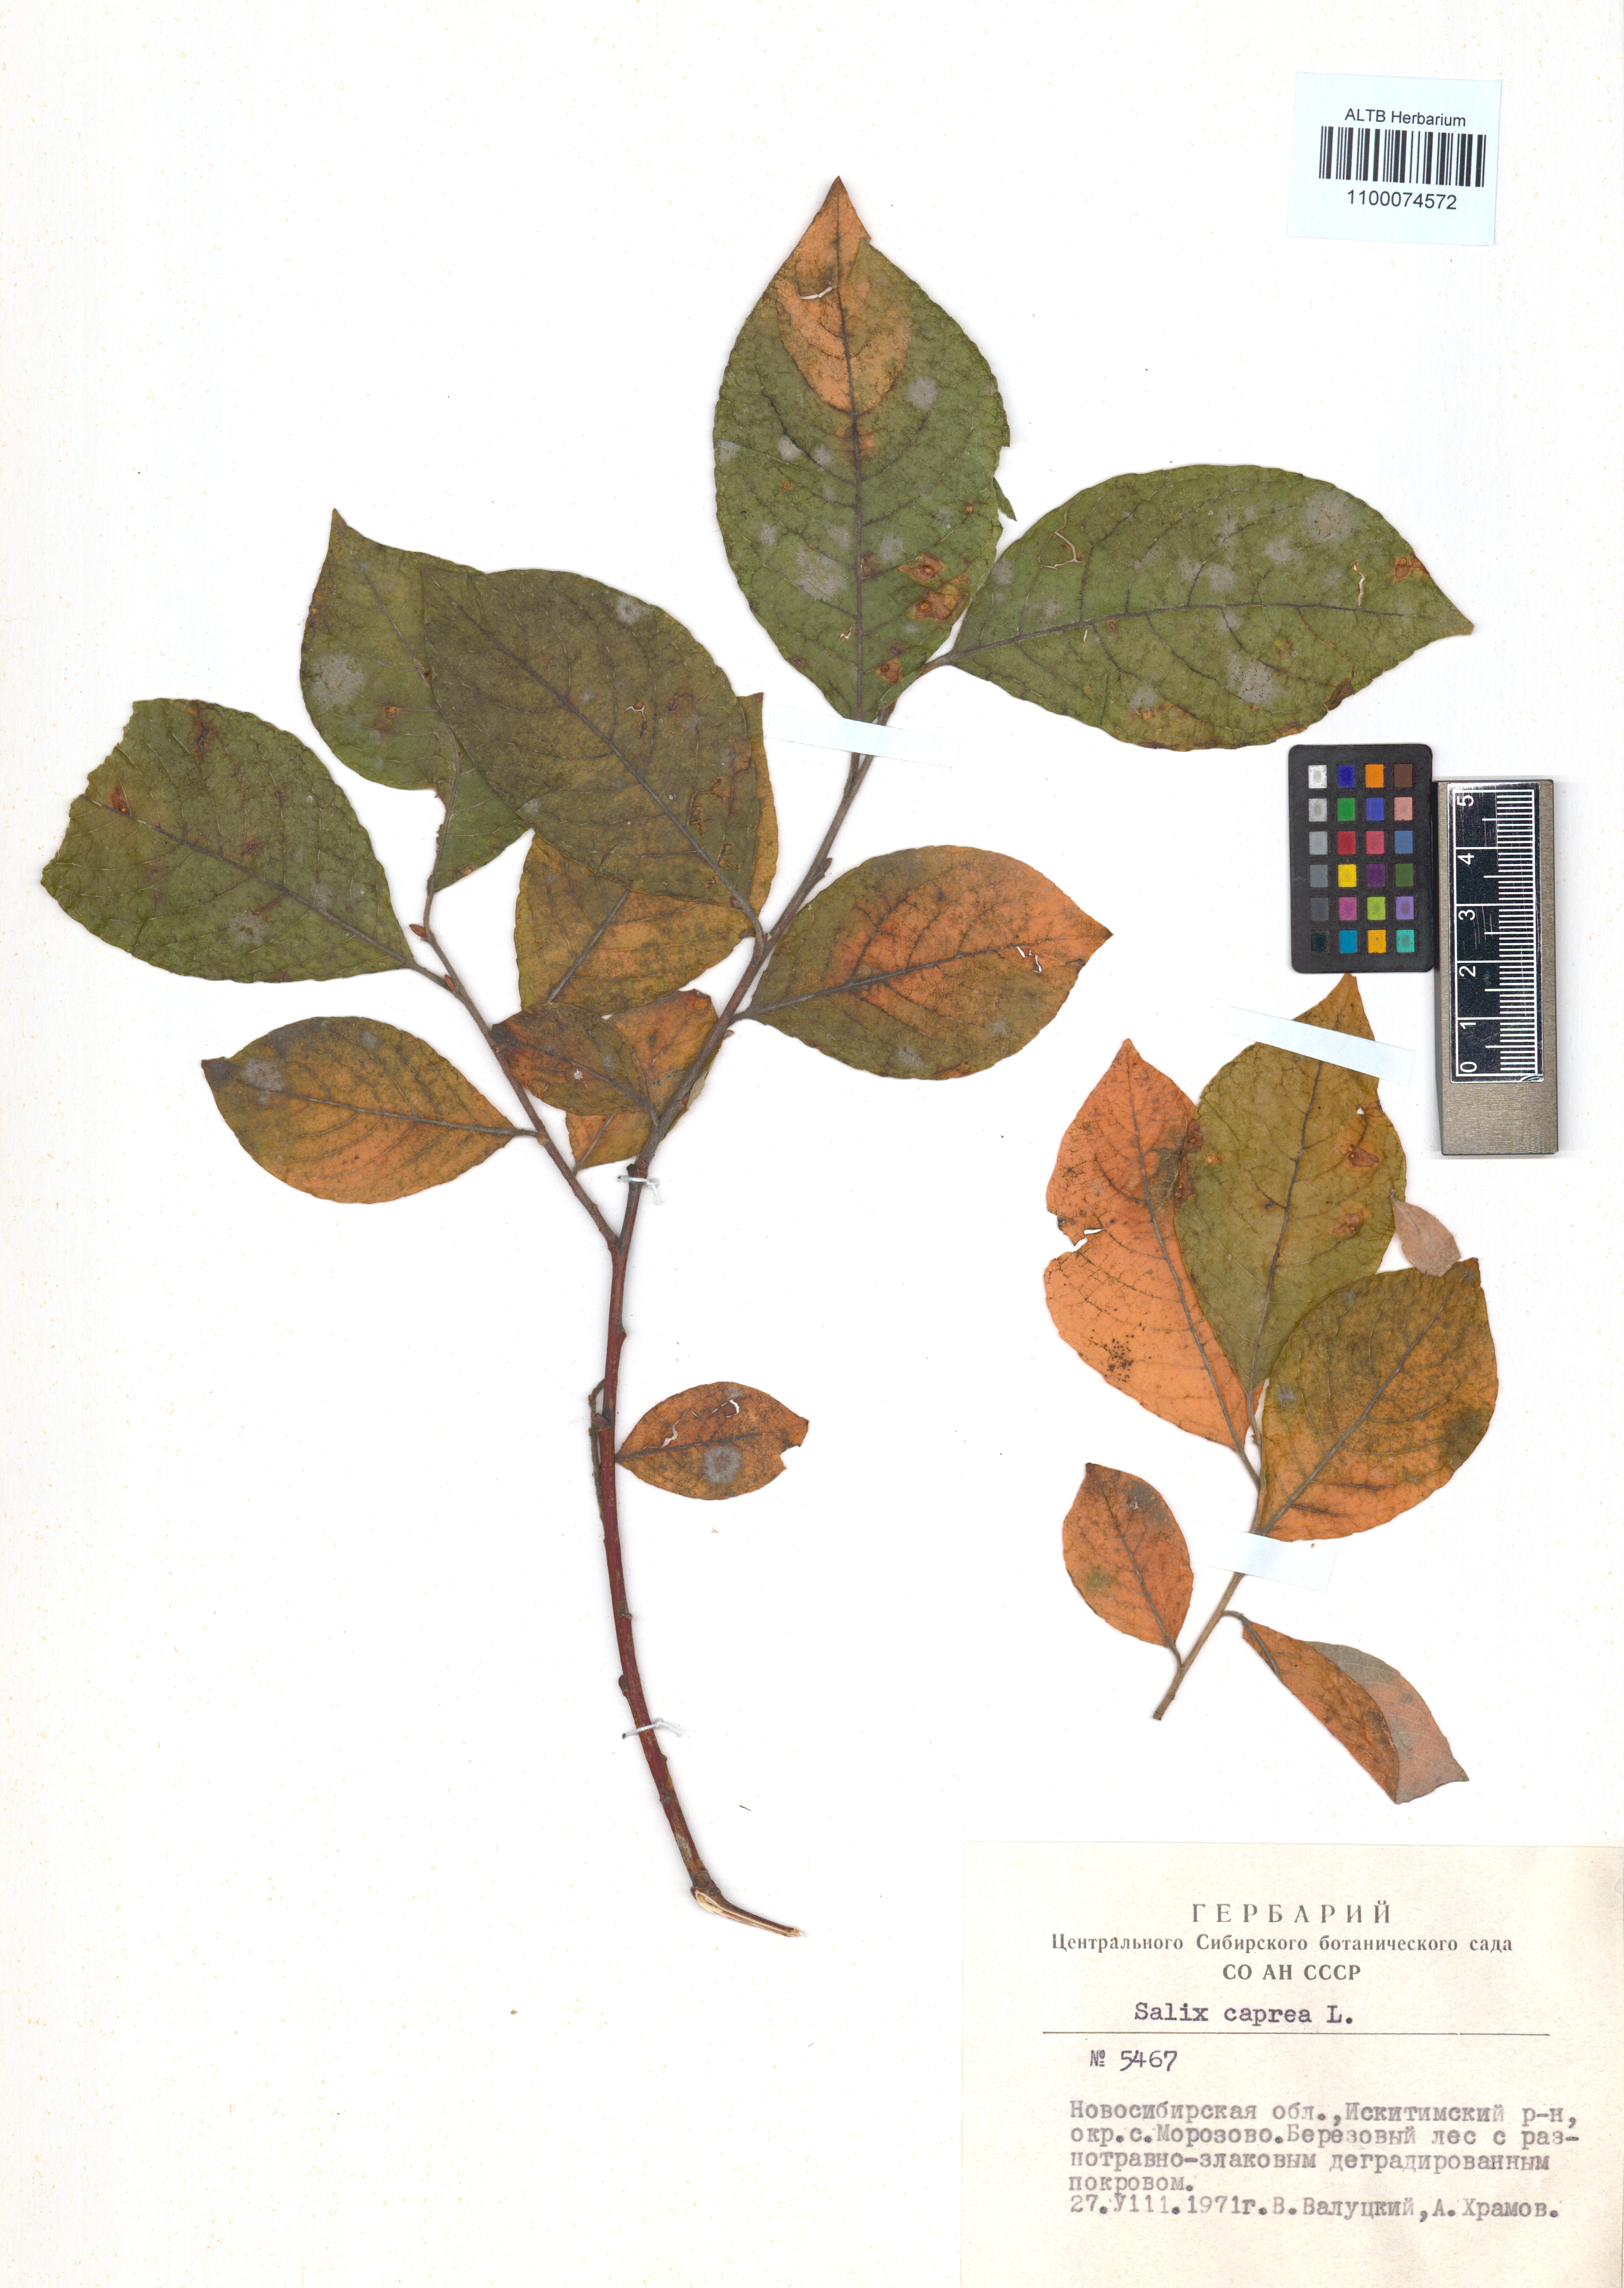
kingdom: Plantae
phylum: Tracheophyta
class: Magnoliopsida
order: Malpighiales
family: Salicaceae
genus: Salix
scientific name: Salix caprea
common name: Goat willow
